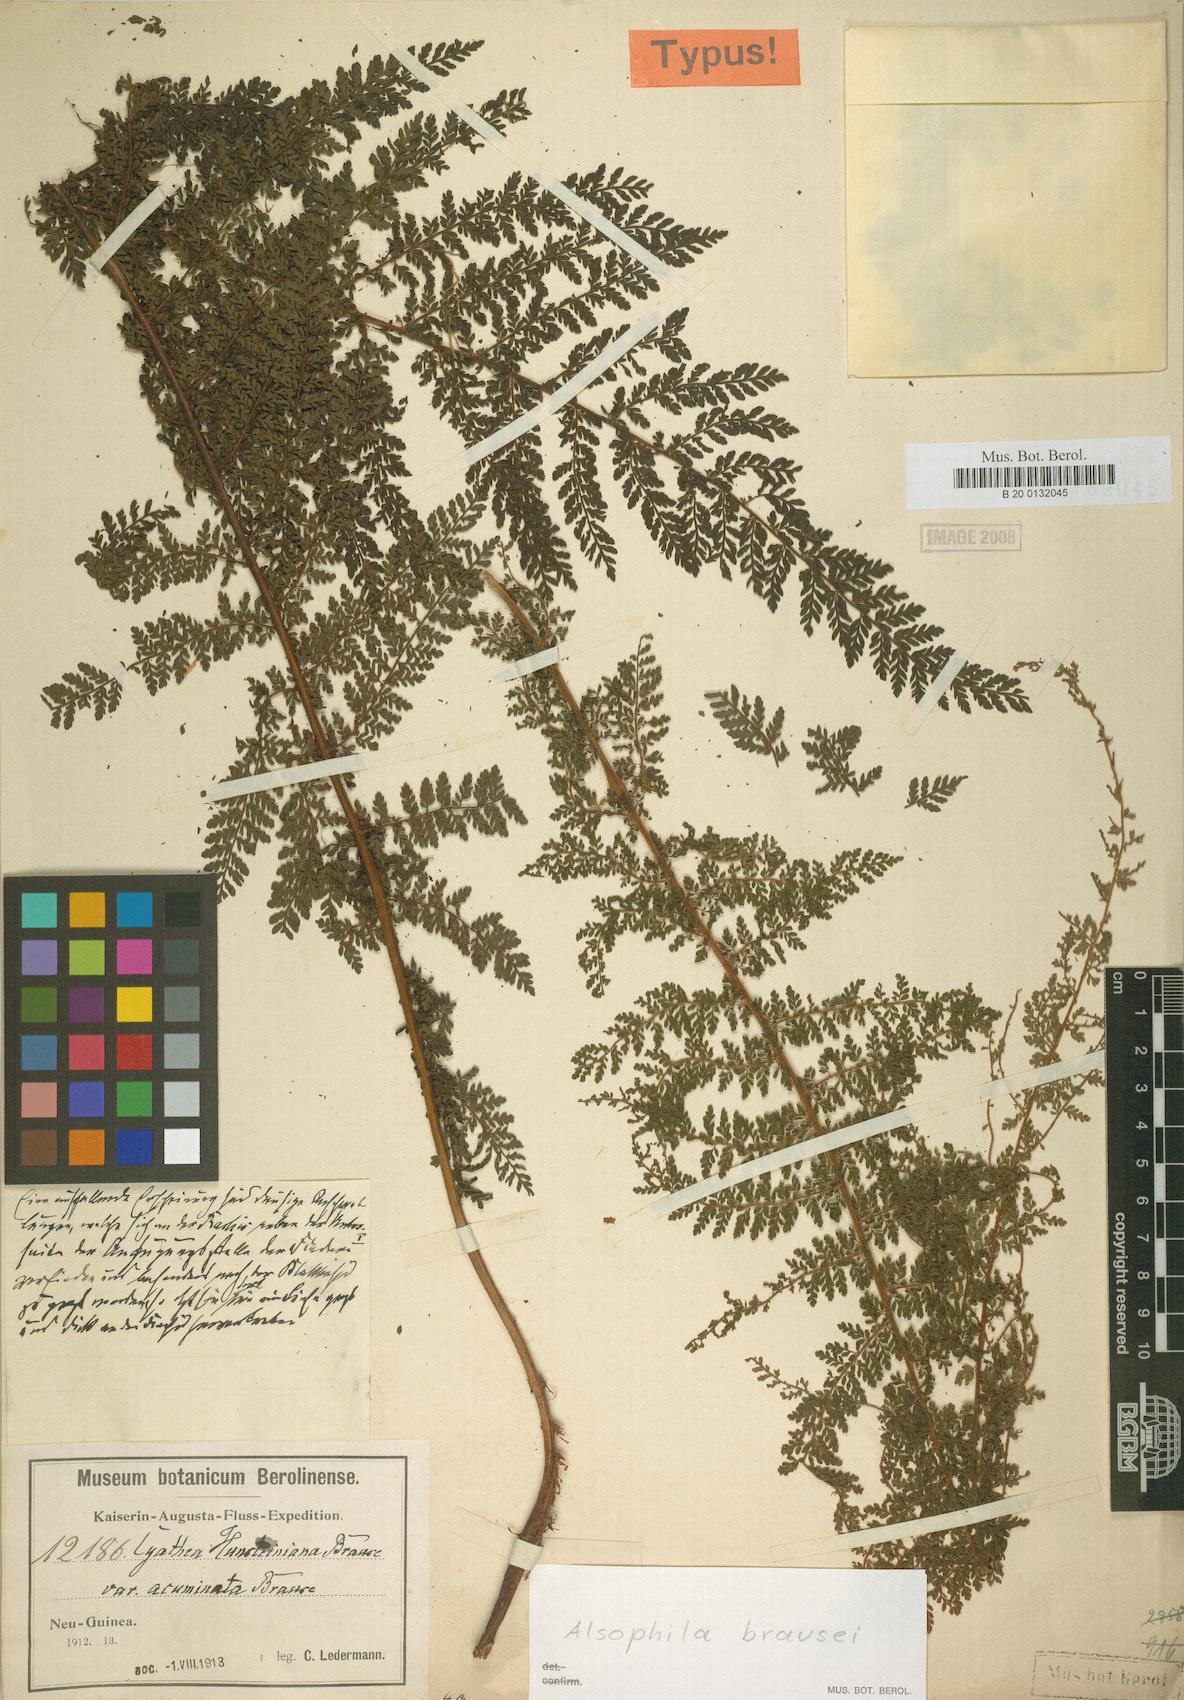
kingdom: Plantae
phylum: Tracheophyta
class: Polypodiopsida
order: Cyatheales
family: Cyatheaceae
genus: Alsophila
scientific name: Alsophila rubiginosa
